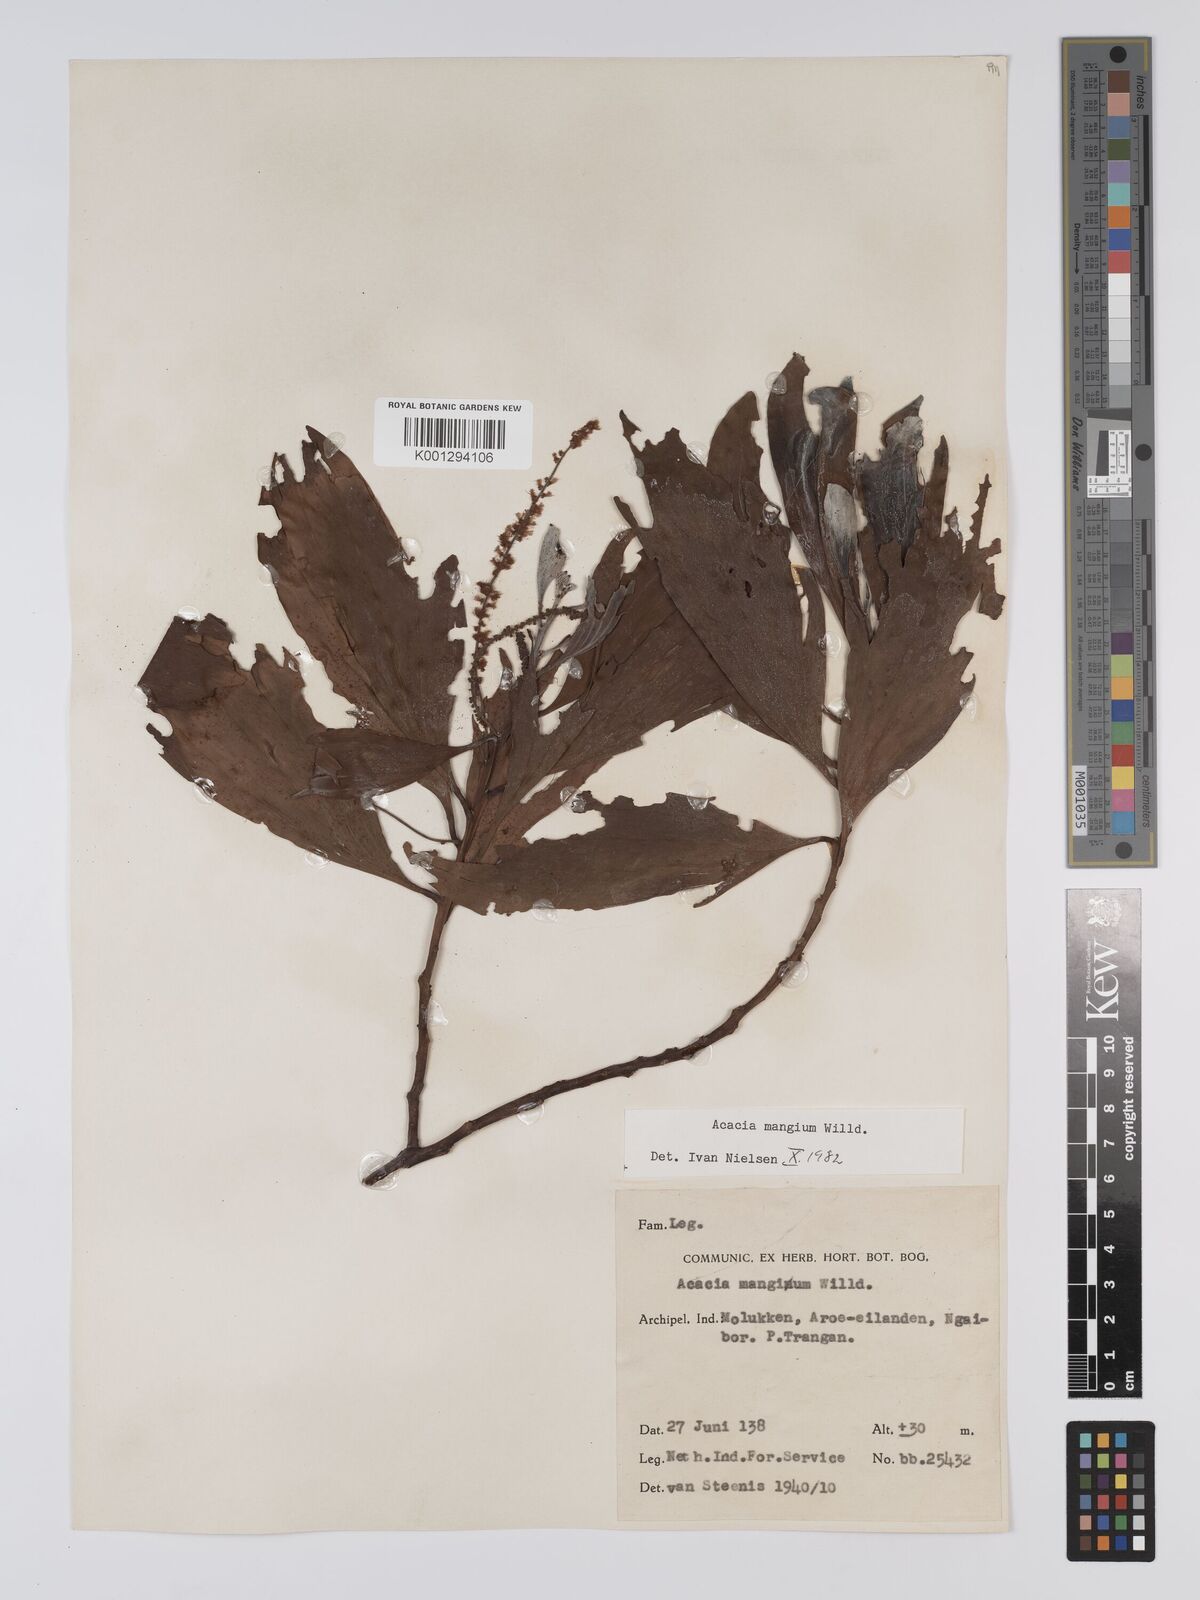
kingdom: Plantae
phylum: Tracheophyta
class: Magnoliopsida
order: Fabales
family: Fabaceae
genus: Acacia
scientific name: Acacia
